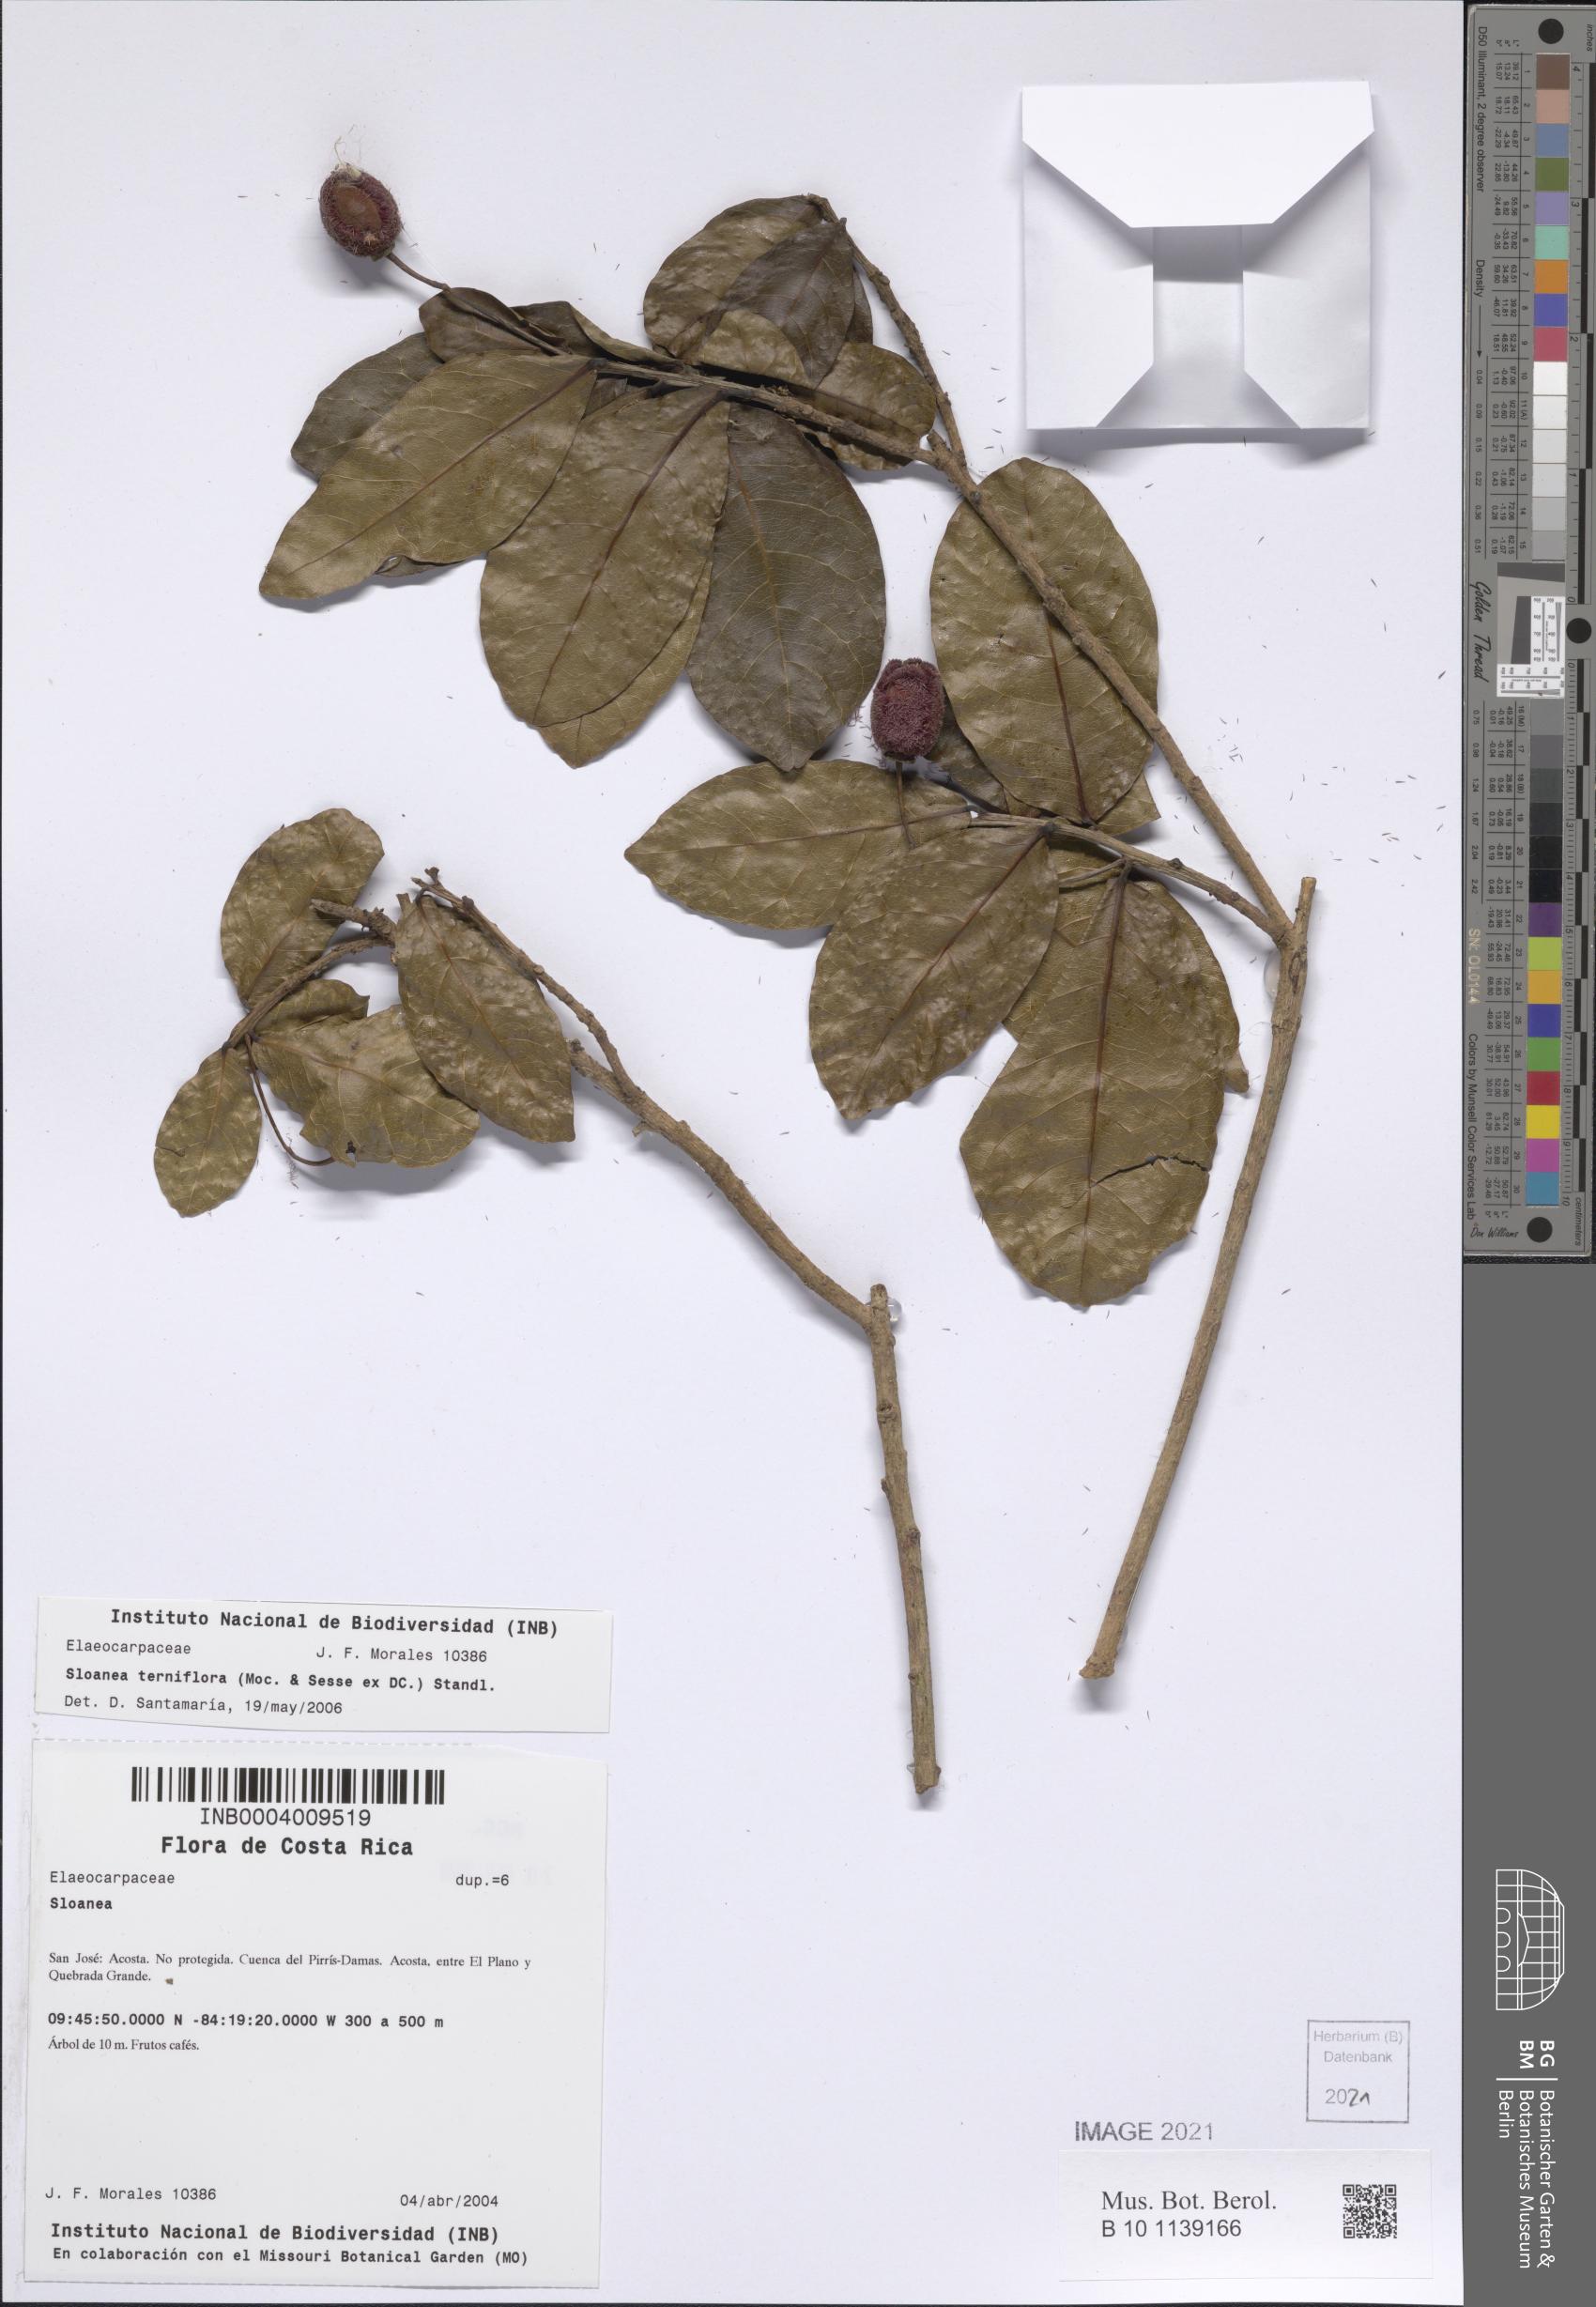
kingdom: Plantae
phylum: Tracheophyta
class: Magnoliopsida
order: Oxalidales
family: Elaeocarpaceae
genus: Sloanea
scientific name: Sloanea terniflora
